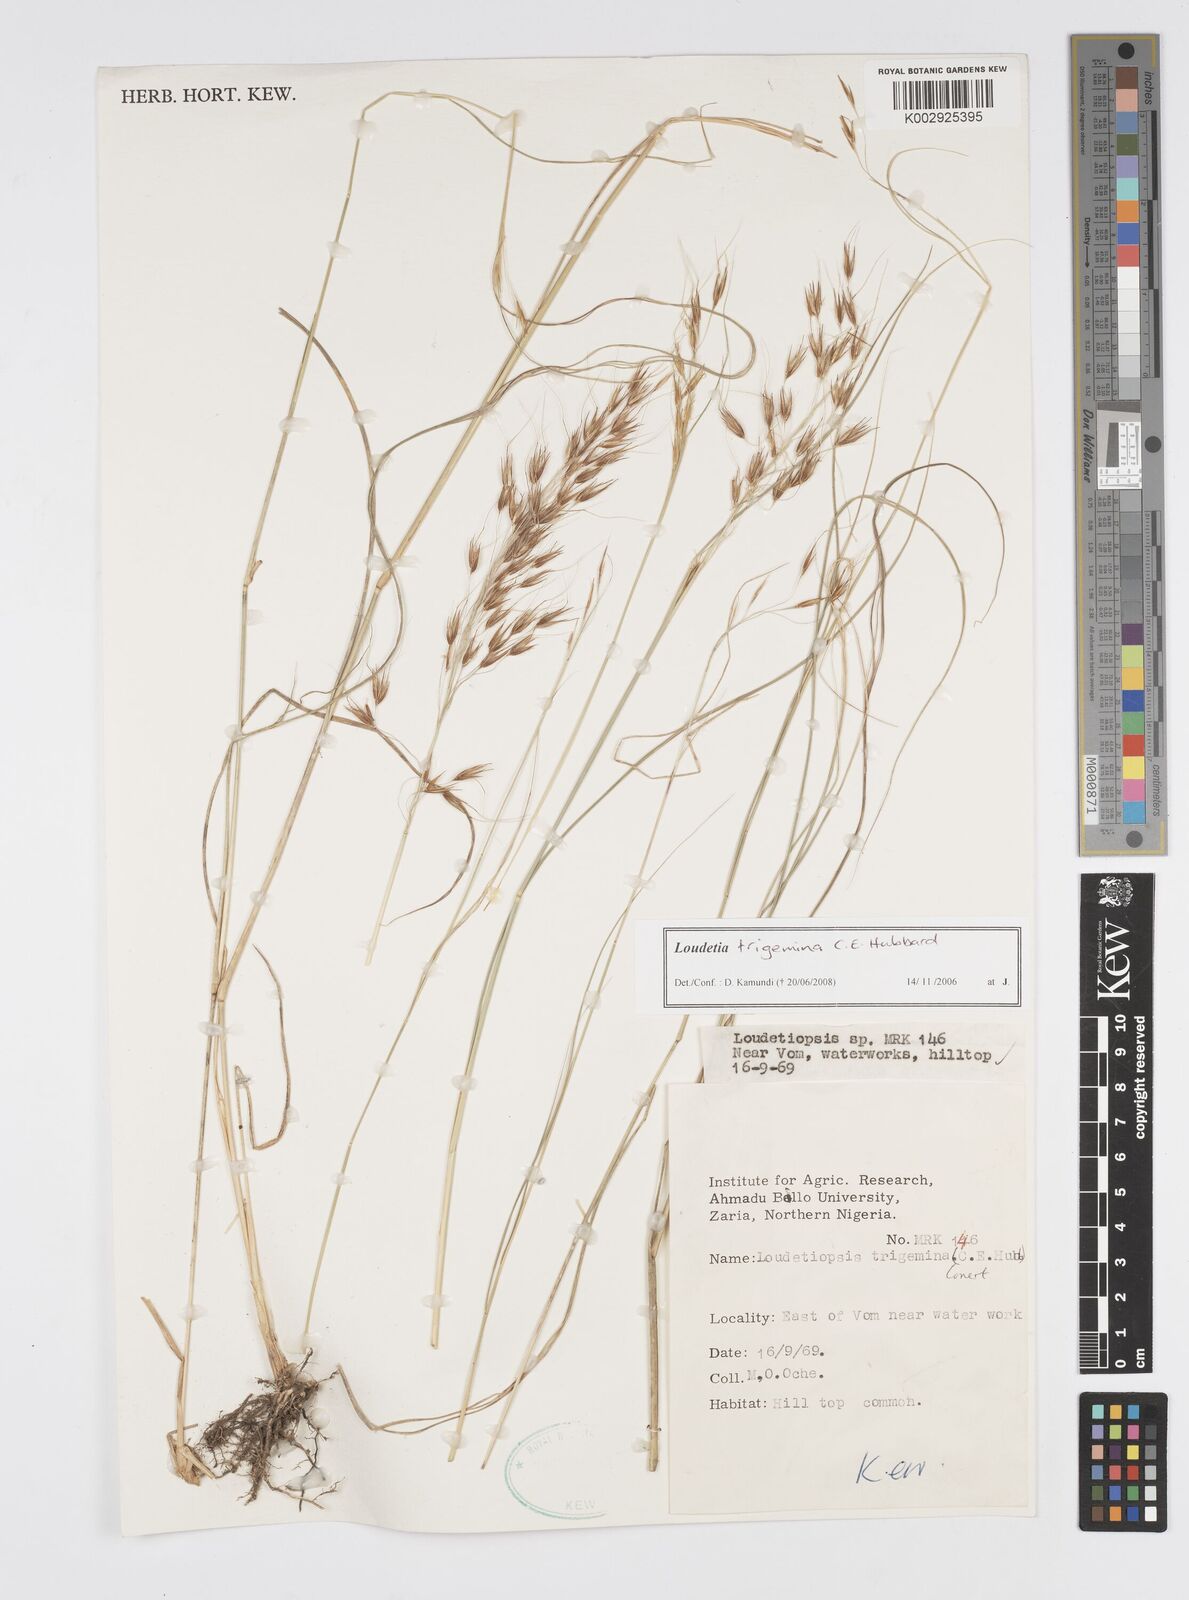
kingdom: Plantae
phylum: Tracheophyta
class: Liliopsida
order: Poales
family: Poaceae
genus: Loudetiopsis
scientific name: Loudetiopsis trigemina
